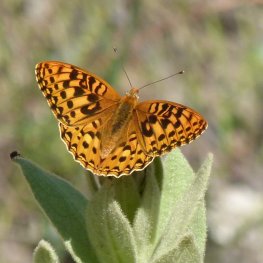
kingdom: Animalia
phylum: Arthropoda
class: Insecta
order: Lepidoptera
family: Nymphalidae
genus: Speyeria
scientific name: Speyeria zerene
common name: Zerene Fritillary
